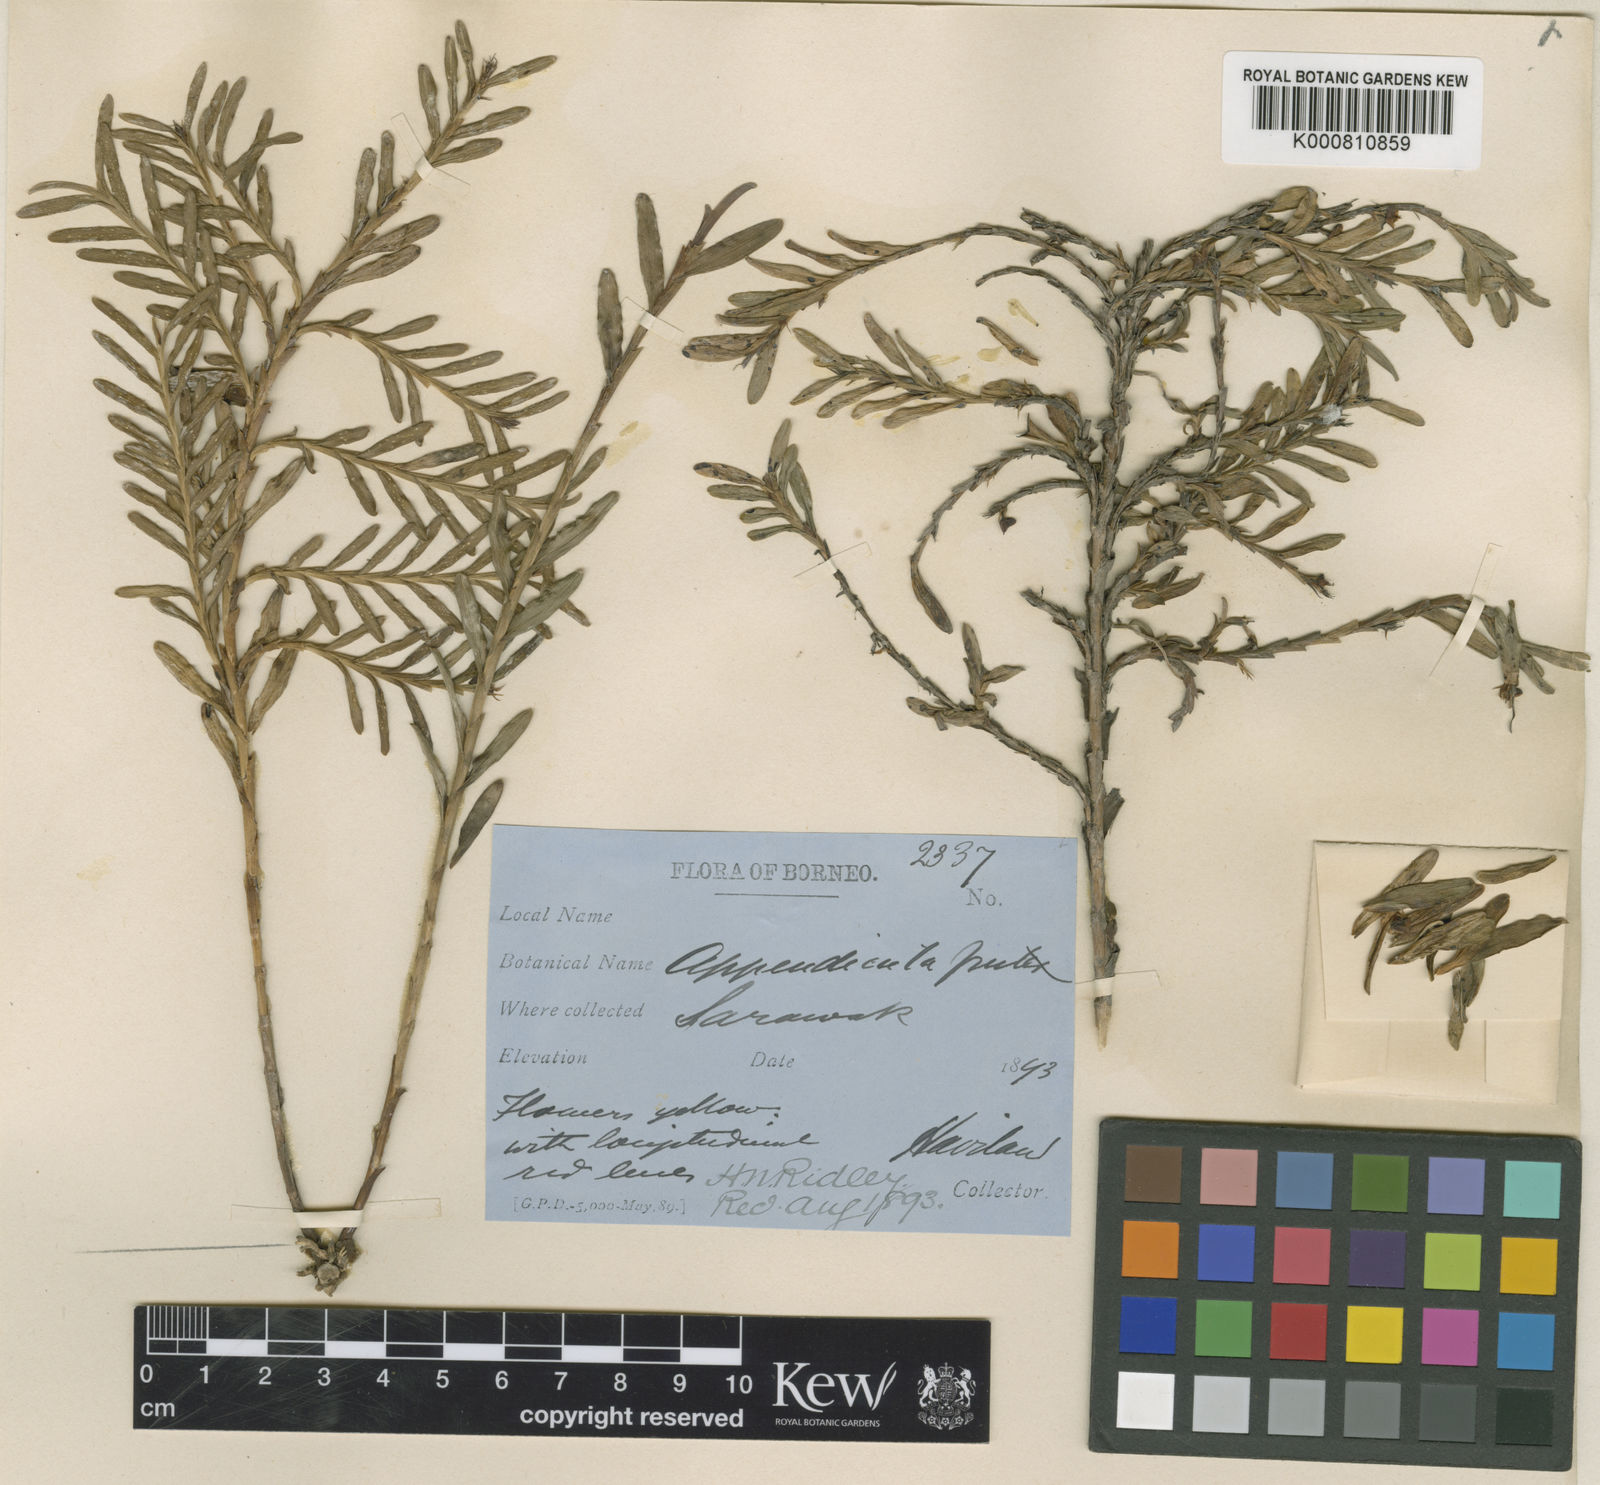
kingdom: Plantae
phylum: Tracheophyta
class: Liliopsida
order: Asparagales
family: Orchidaceae
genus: Appendicula
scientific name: Appendicula brevimentum
